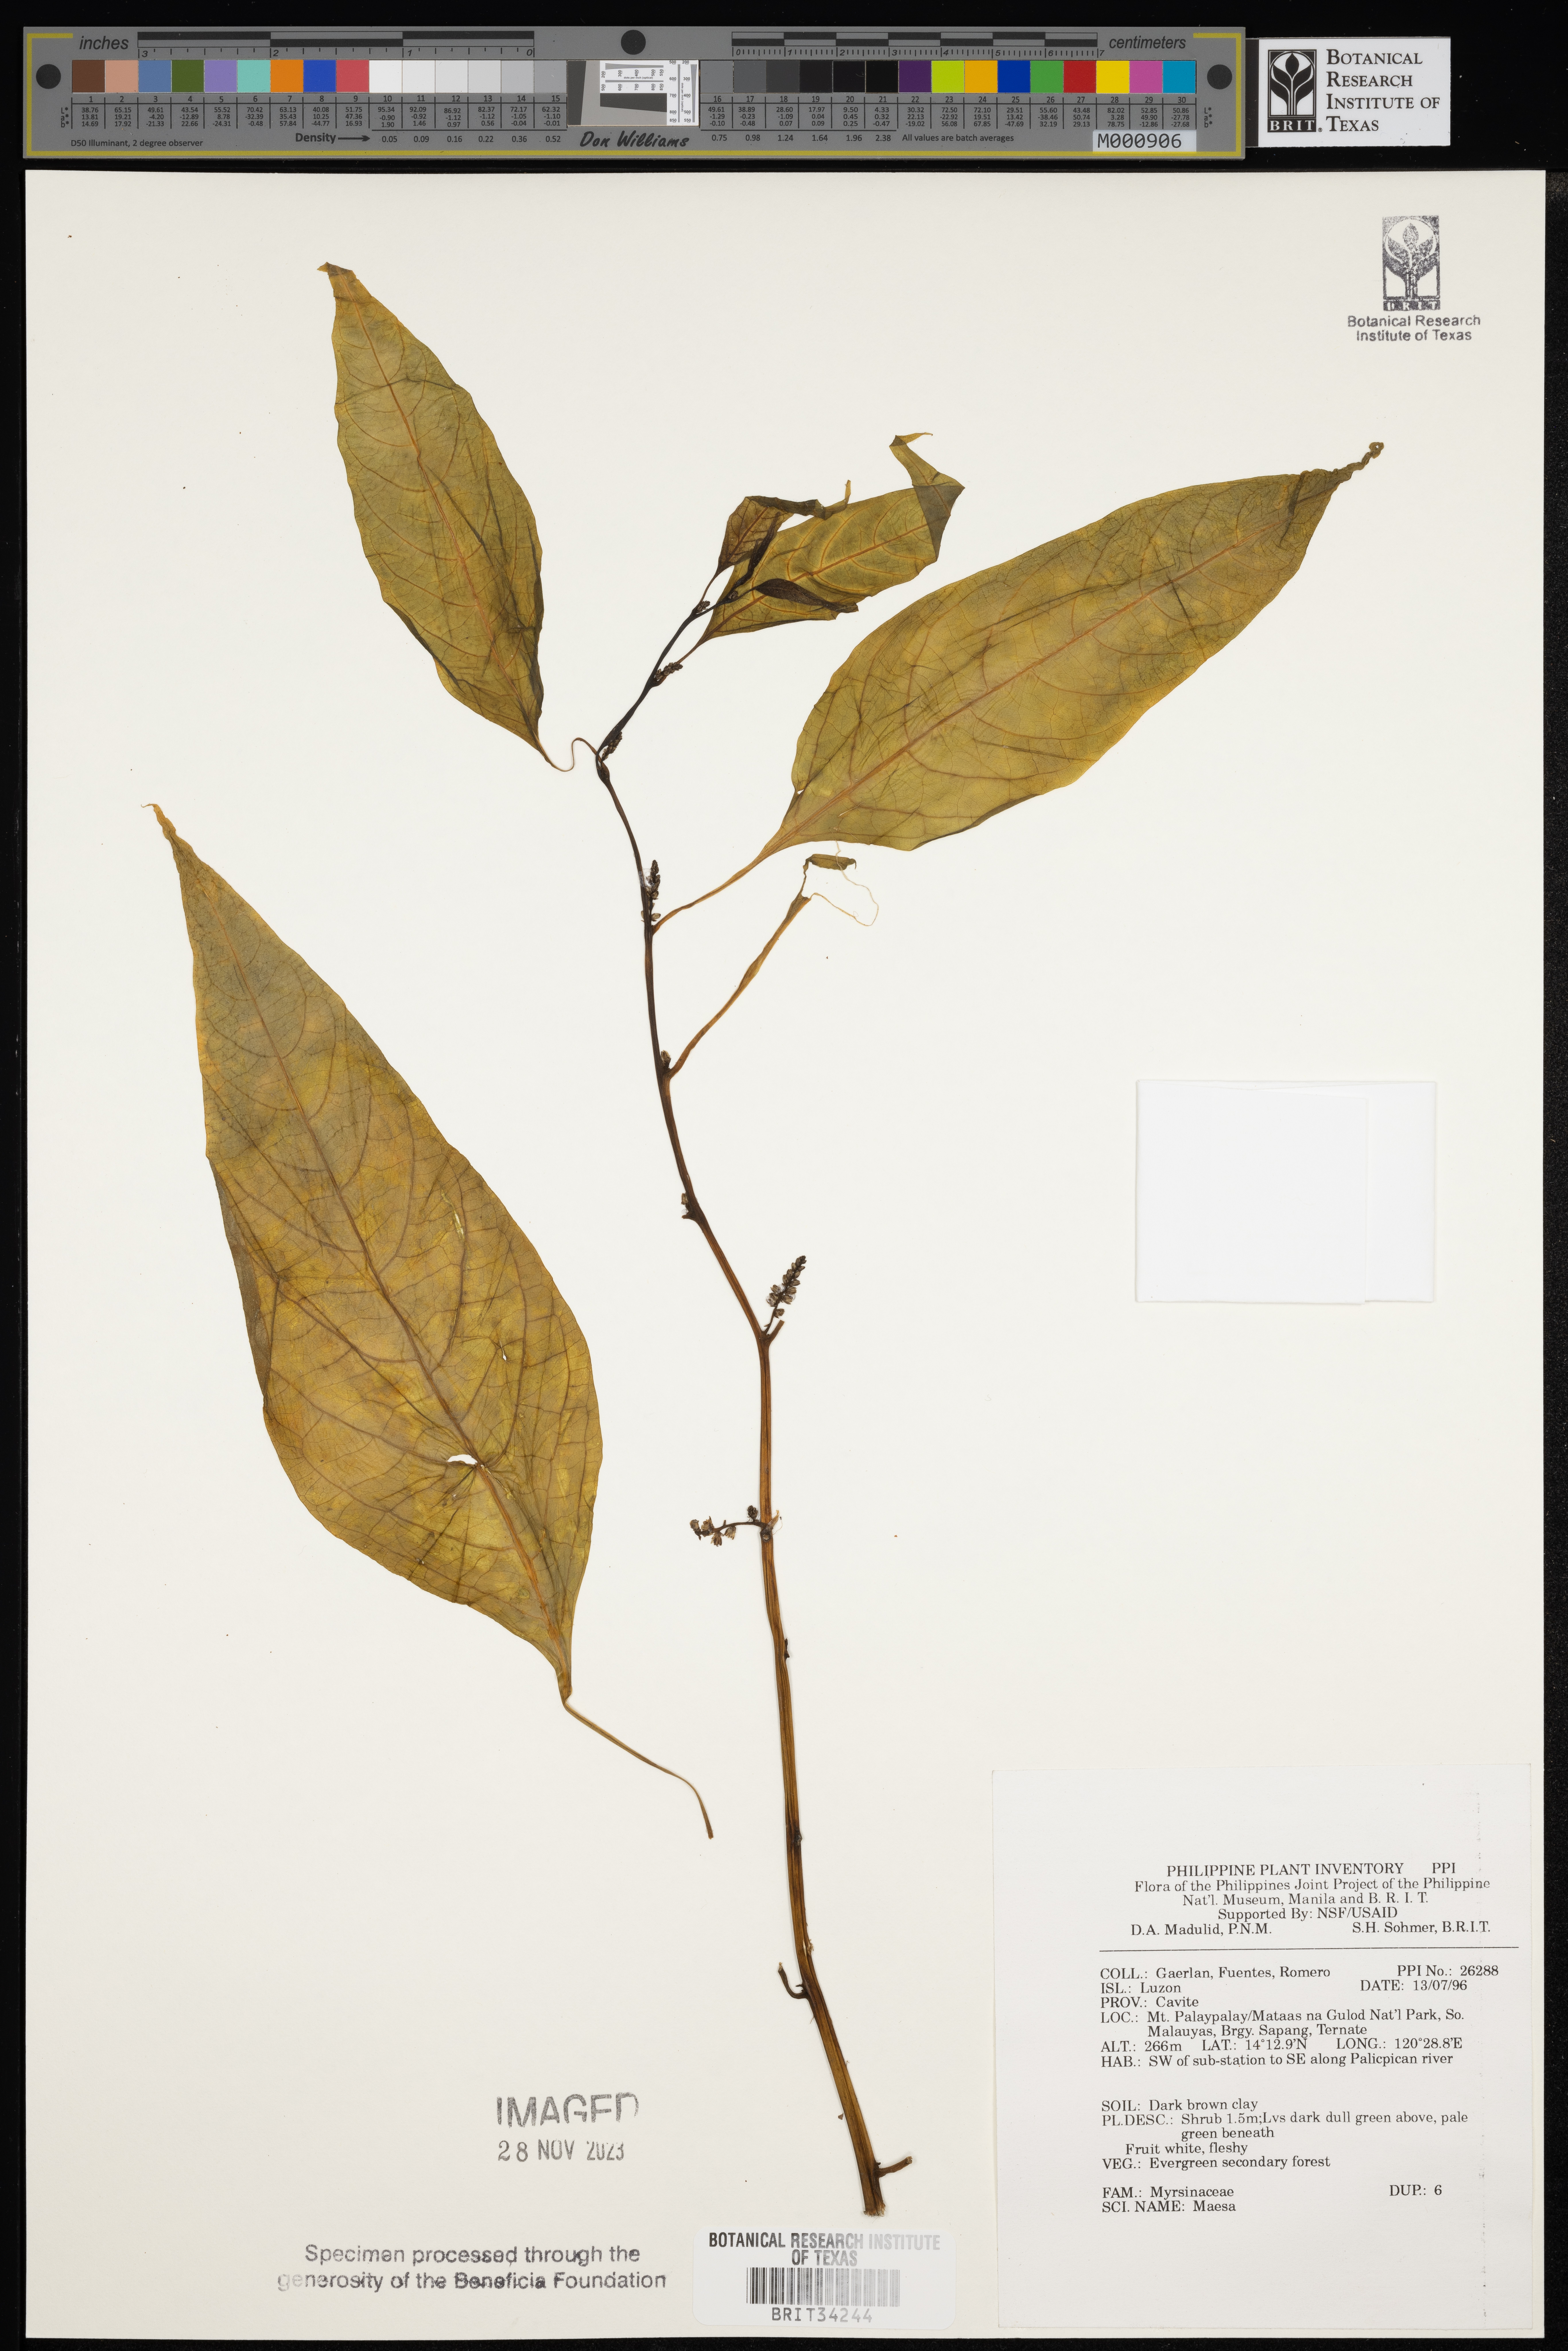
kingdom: Plantae
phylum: Tracheophyta
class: Magnoliopsida
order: Ericales
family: Primulaceae
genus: Maesa
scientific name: Maesa
